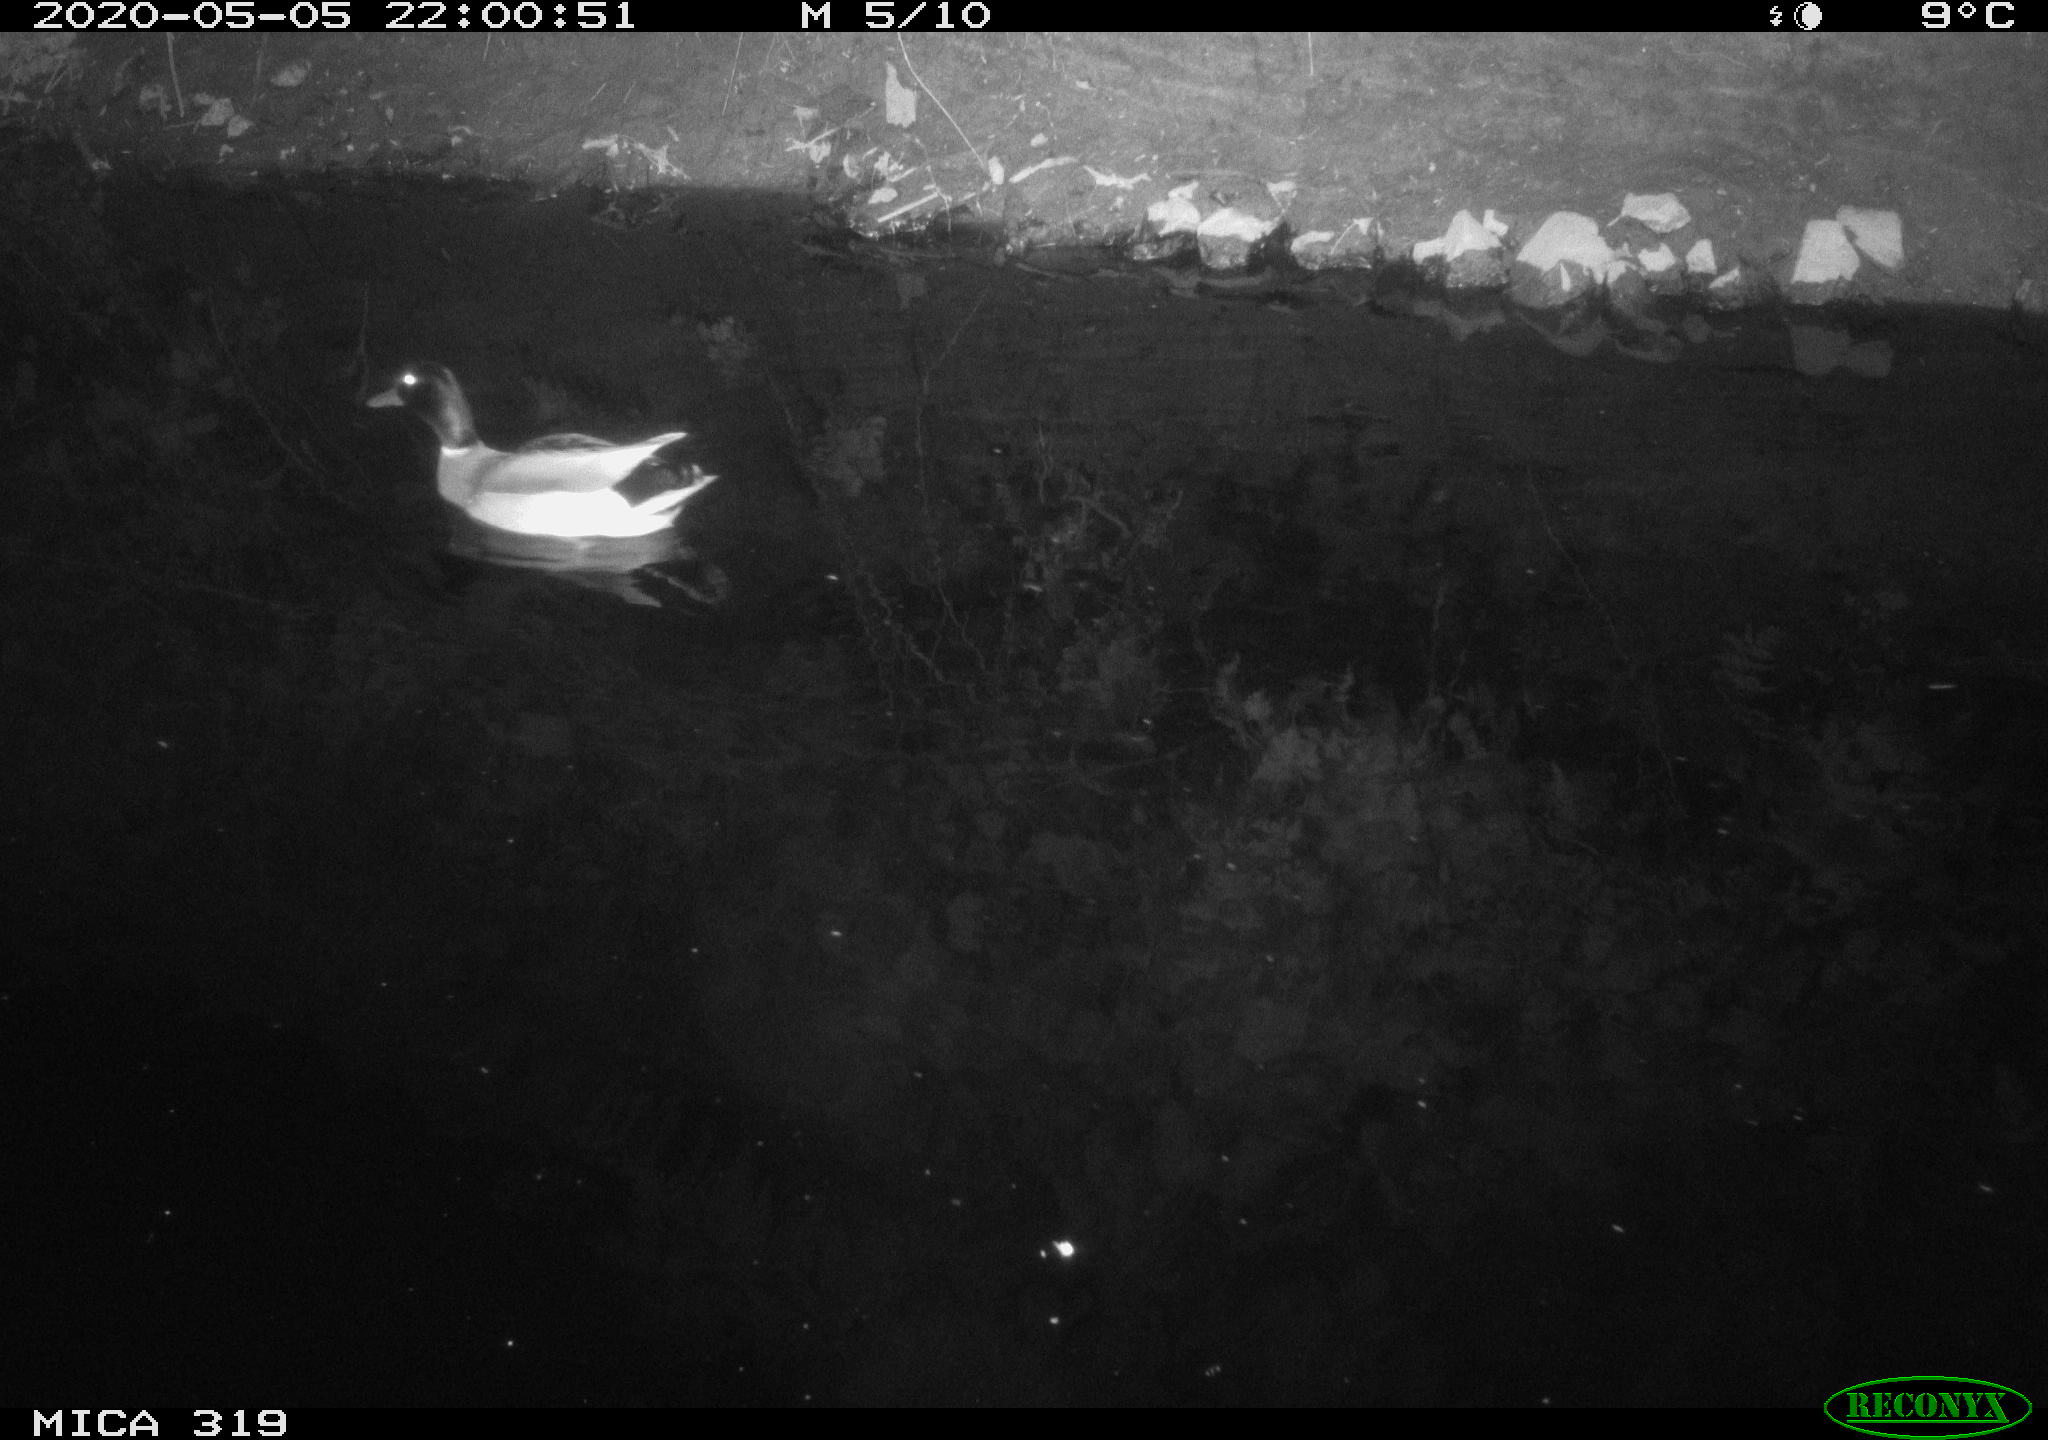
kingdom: Animalia
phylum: Chordata
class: Aves
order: Anseriformes
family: Anatidae
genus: Anas
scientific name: Anas platyrhynchos
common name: Mallard
